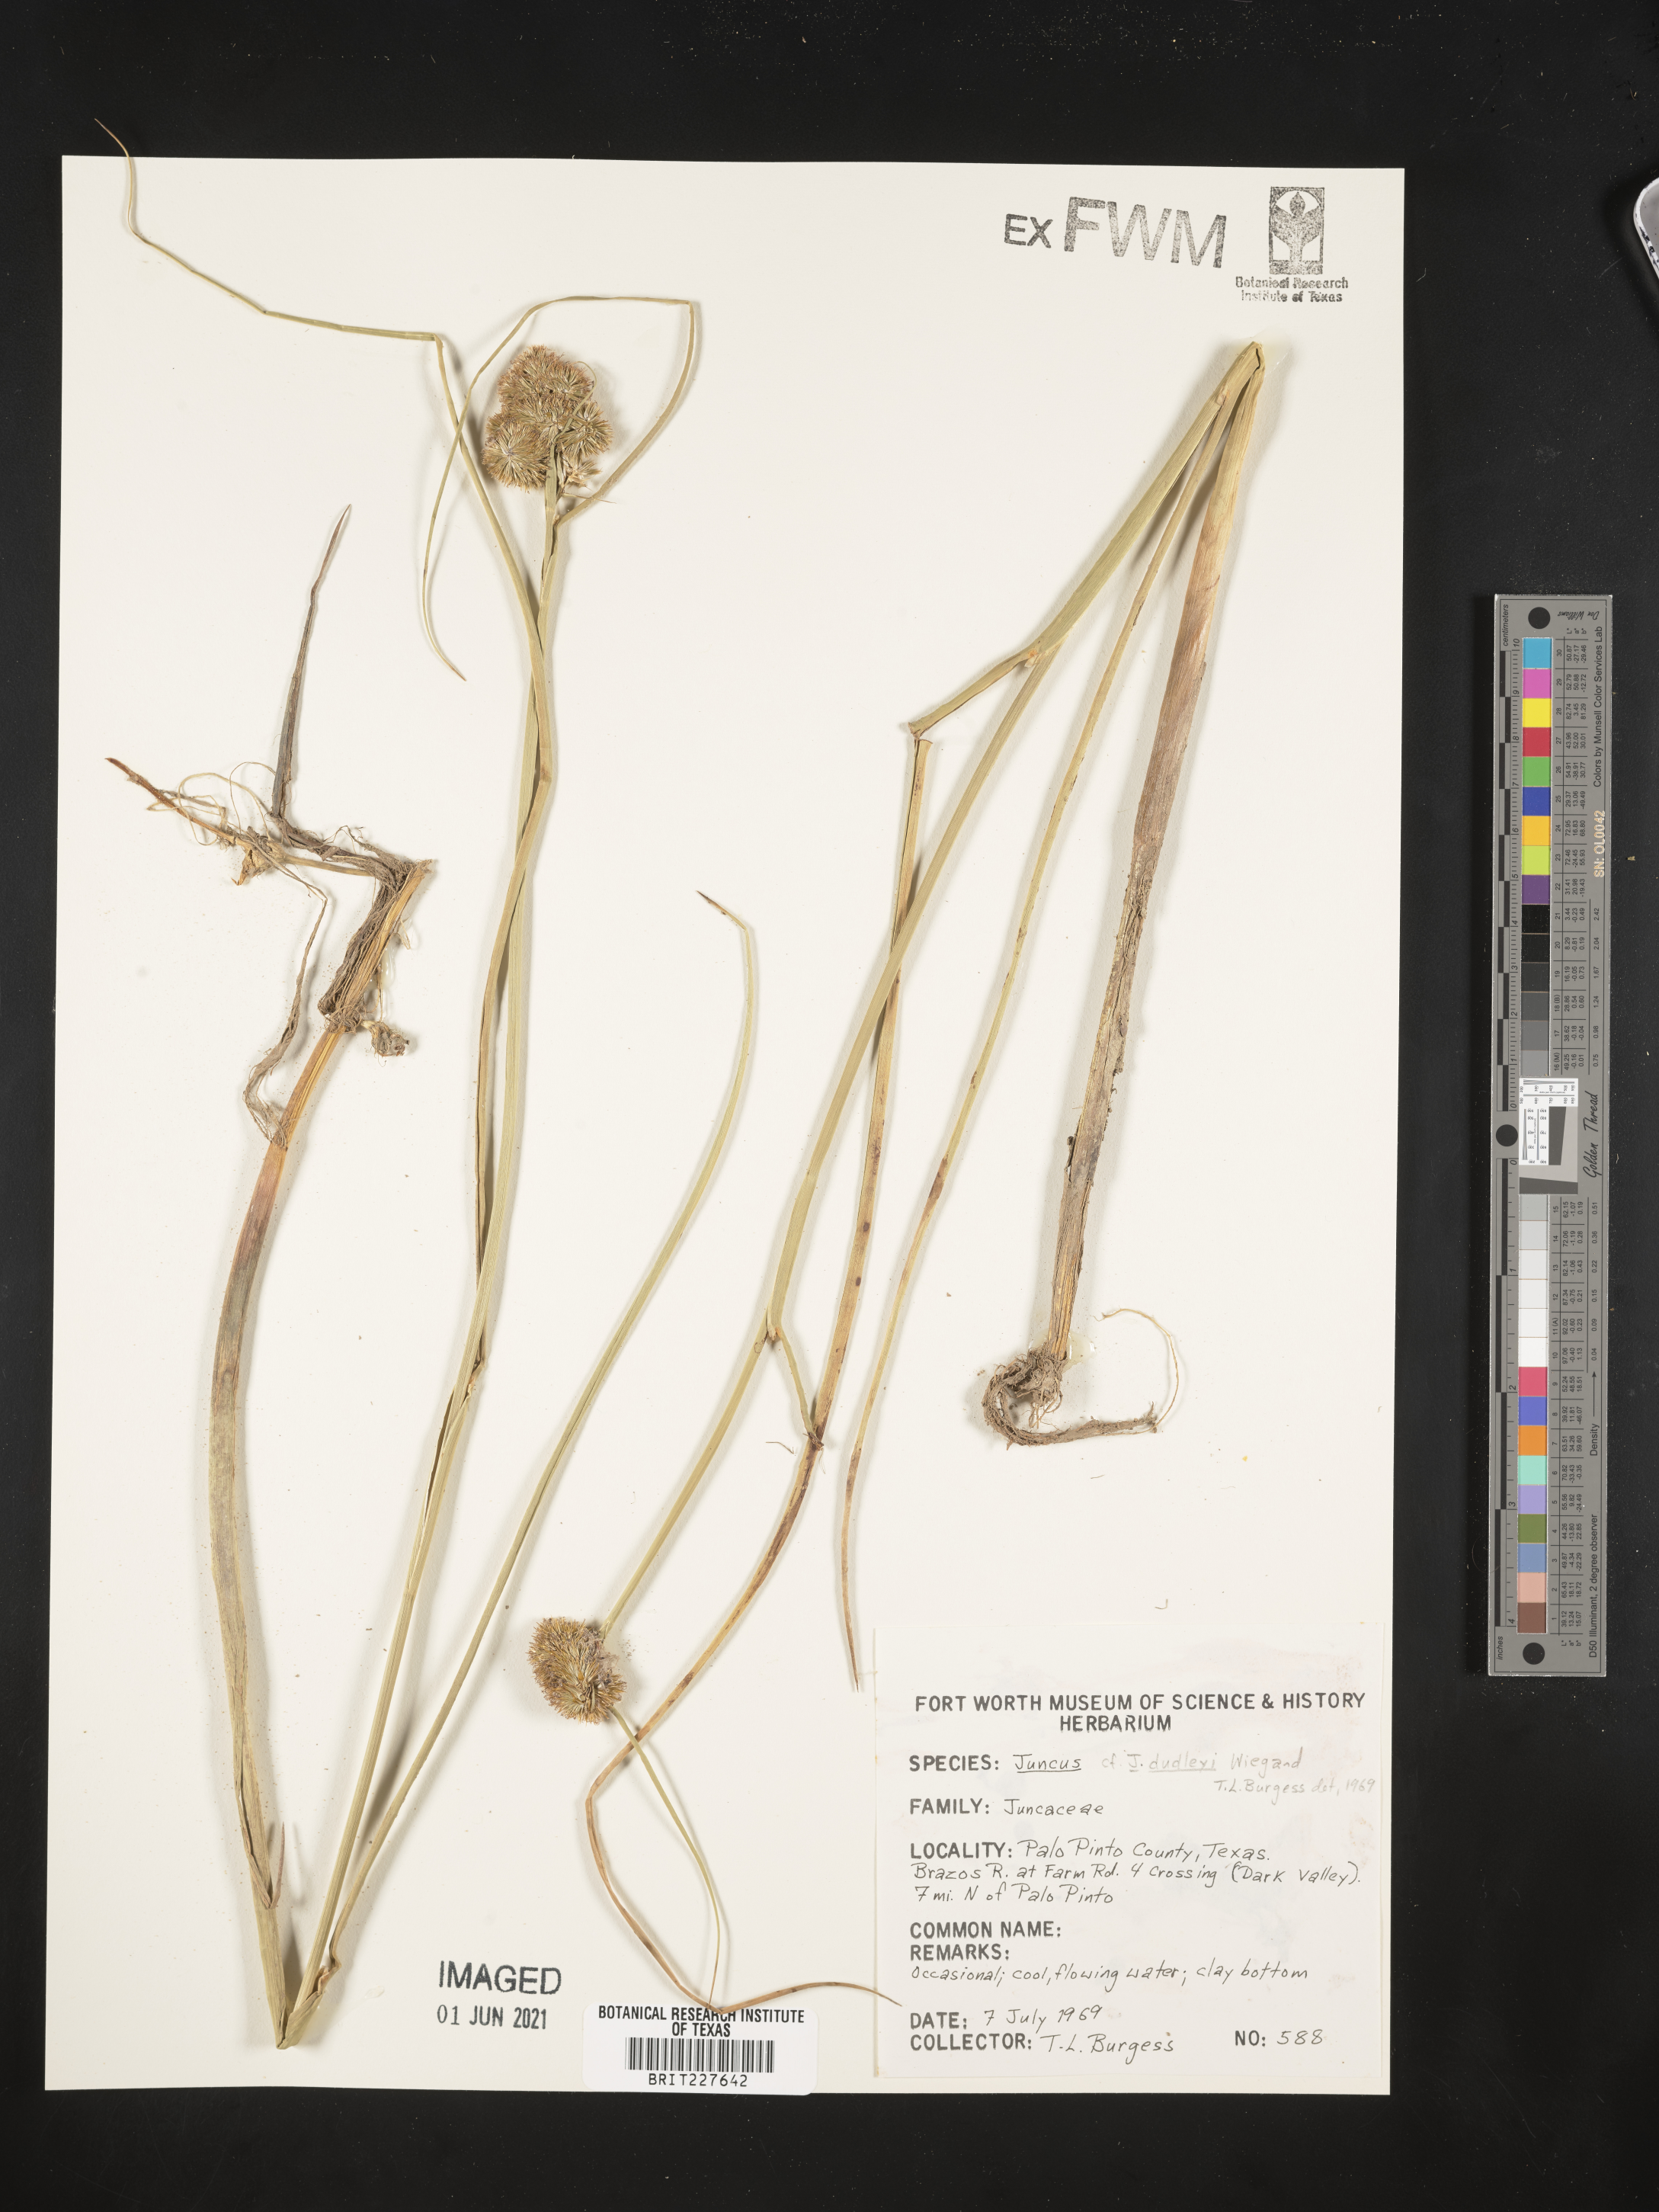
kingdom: Plantae
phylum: Tracheophyta
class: Liliopsida
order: Poales
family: Juncaceae
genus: Juncus
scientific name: Juncus dudleyi
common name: Dudley's rush
